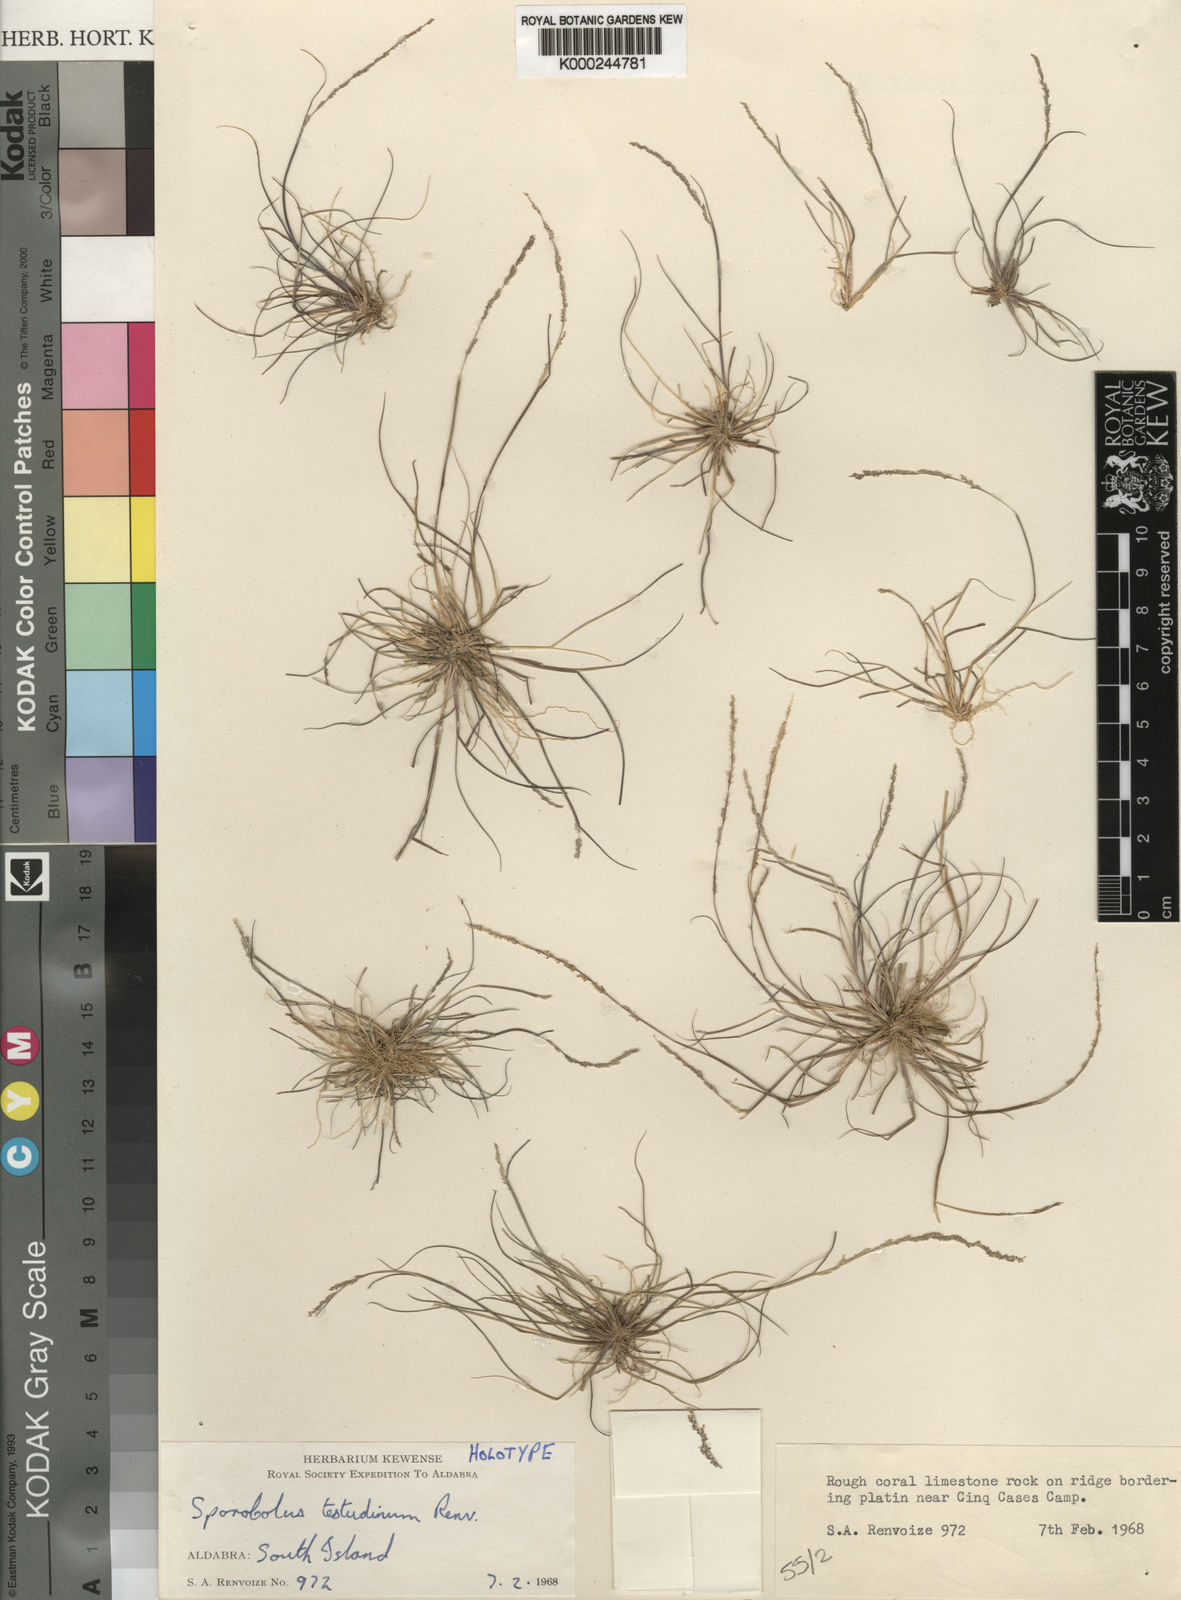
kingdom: Plantae
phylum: Tracheophyta
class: Liliopsida
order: Poales
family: Poaceae
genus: Sporobolus
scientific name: Sporobolus testudinum
